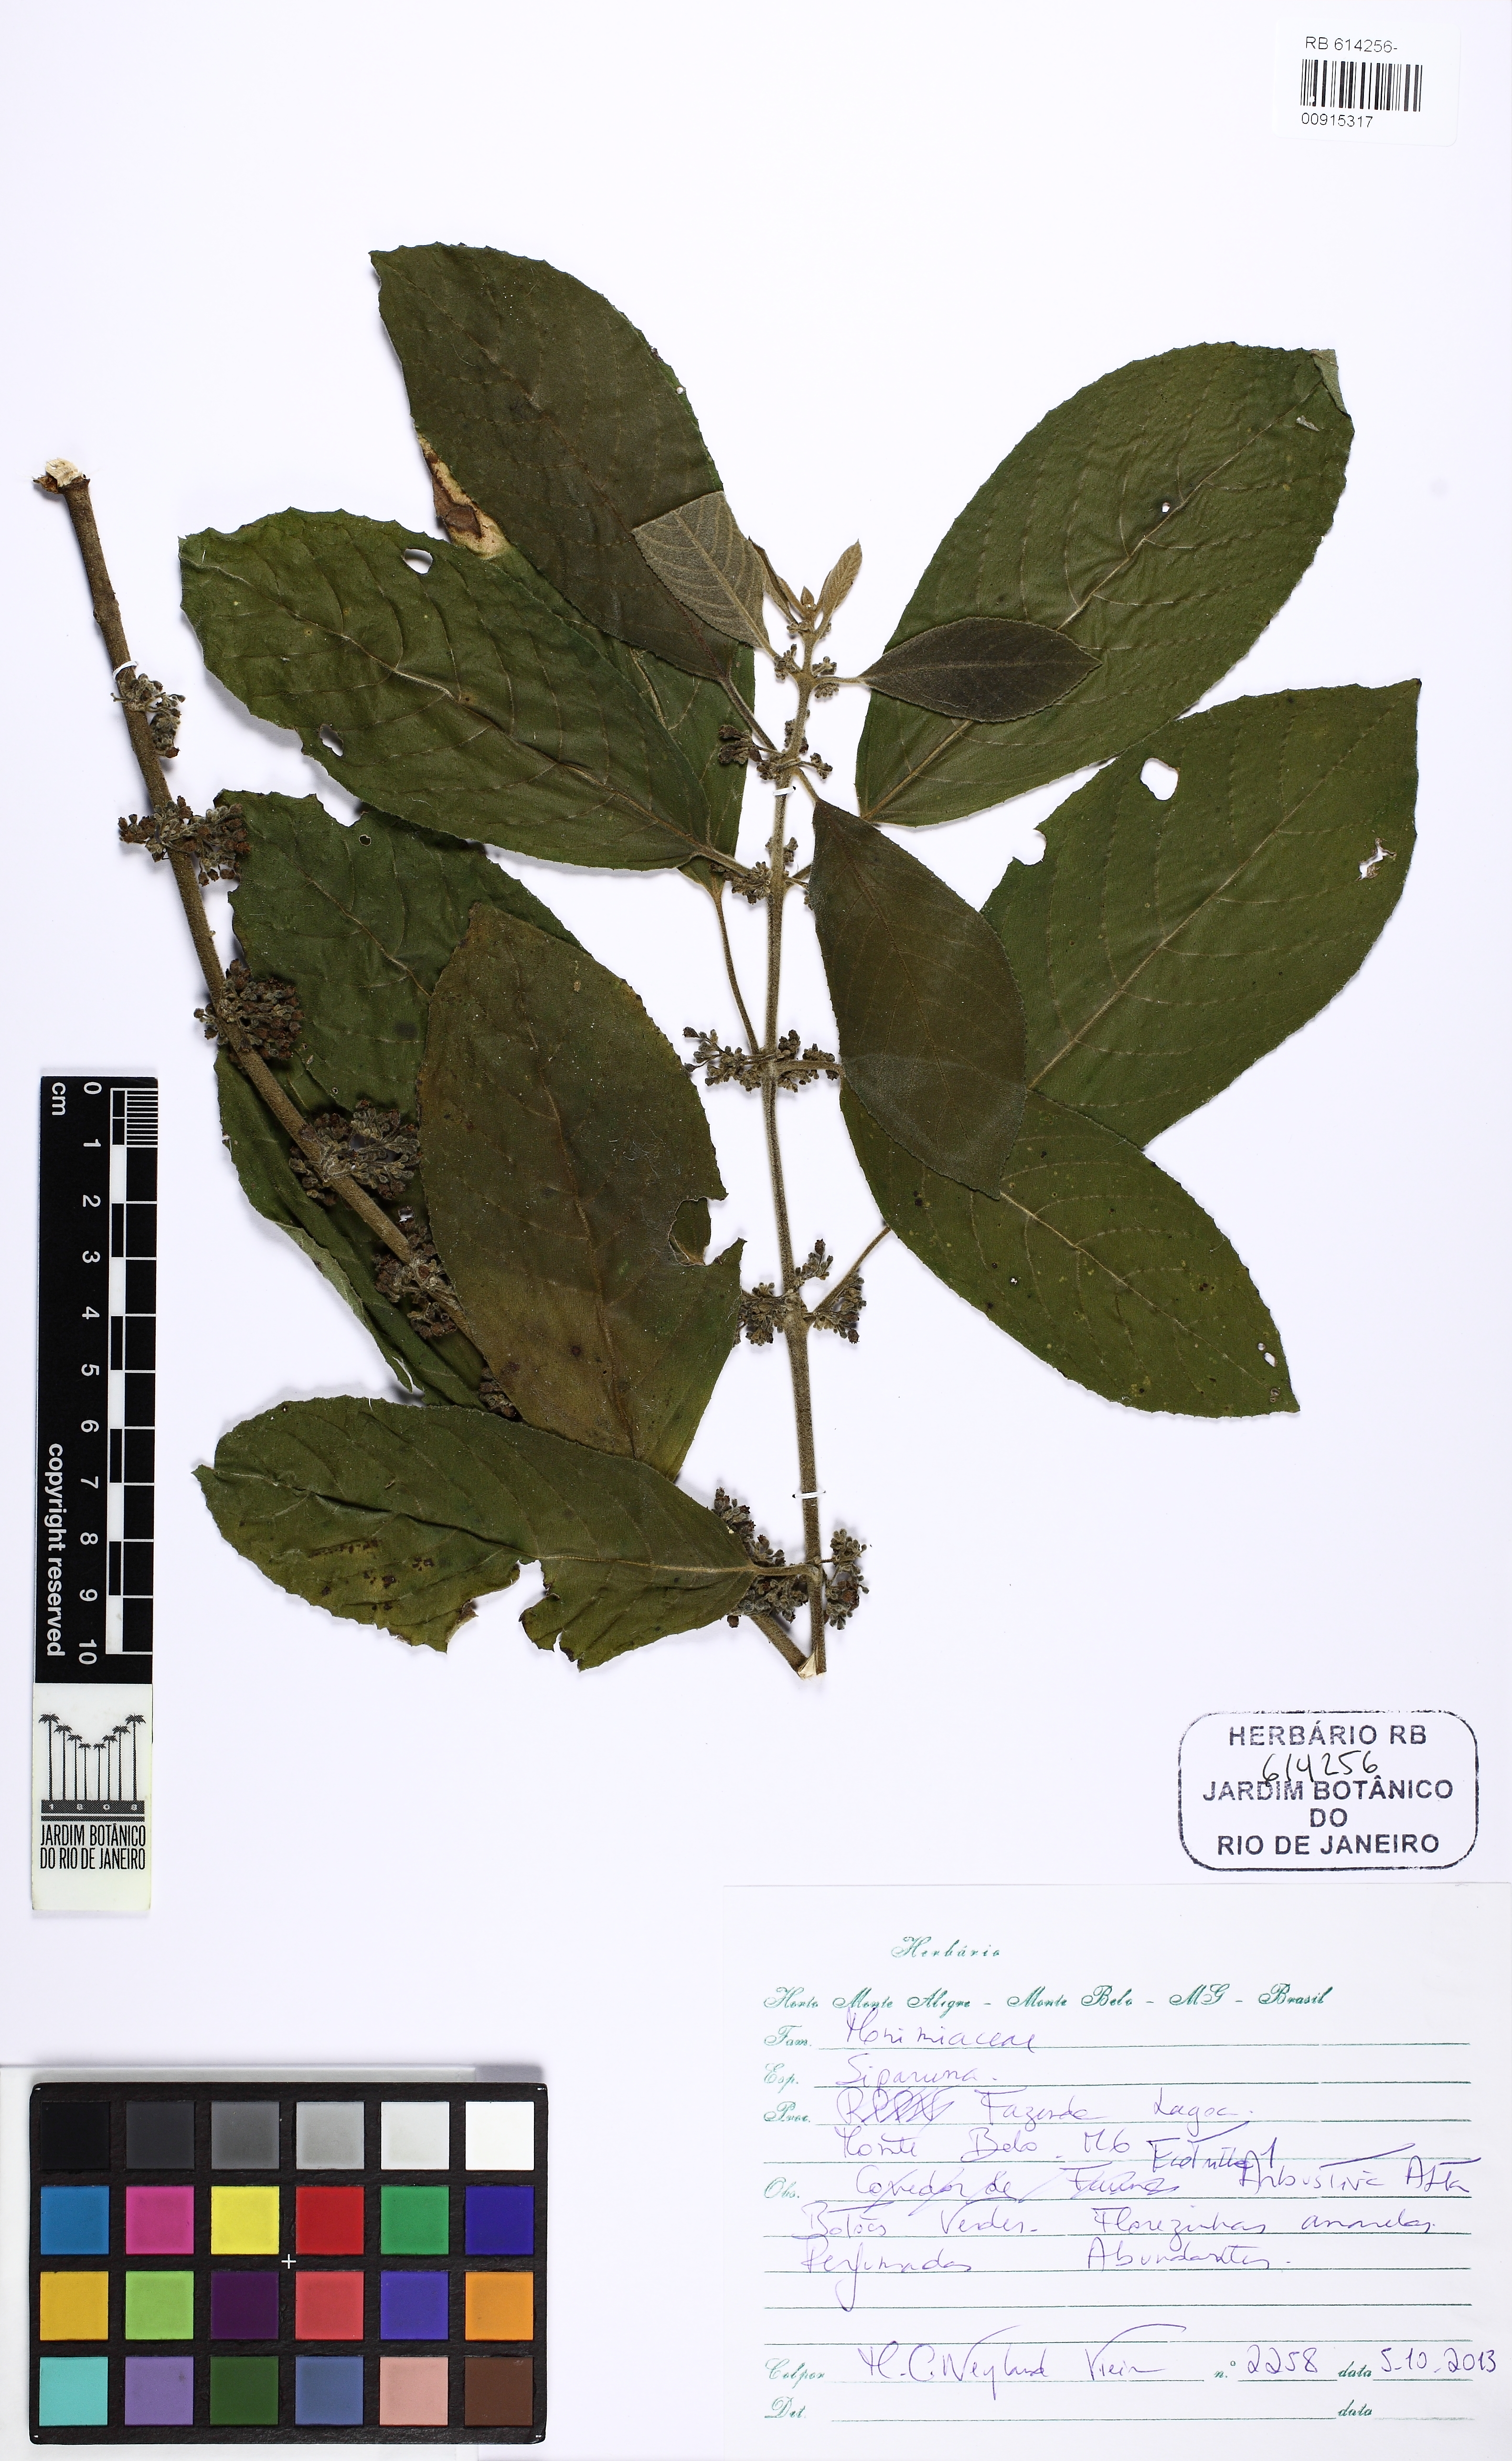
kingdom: Plantae
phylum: Tracheophyta
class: Magnoliopsida
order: Laurales
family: Siparunaceae
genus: Siparuna
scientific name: Siparuna brasiliensis
